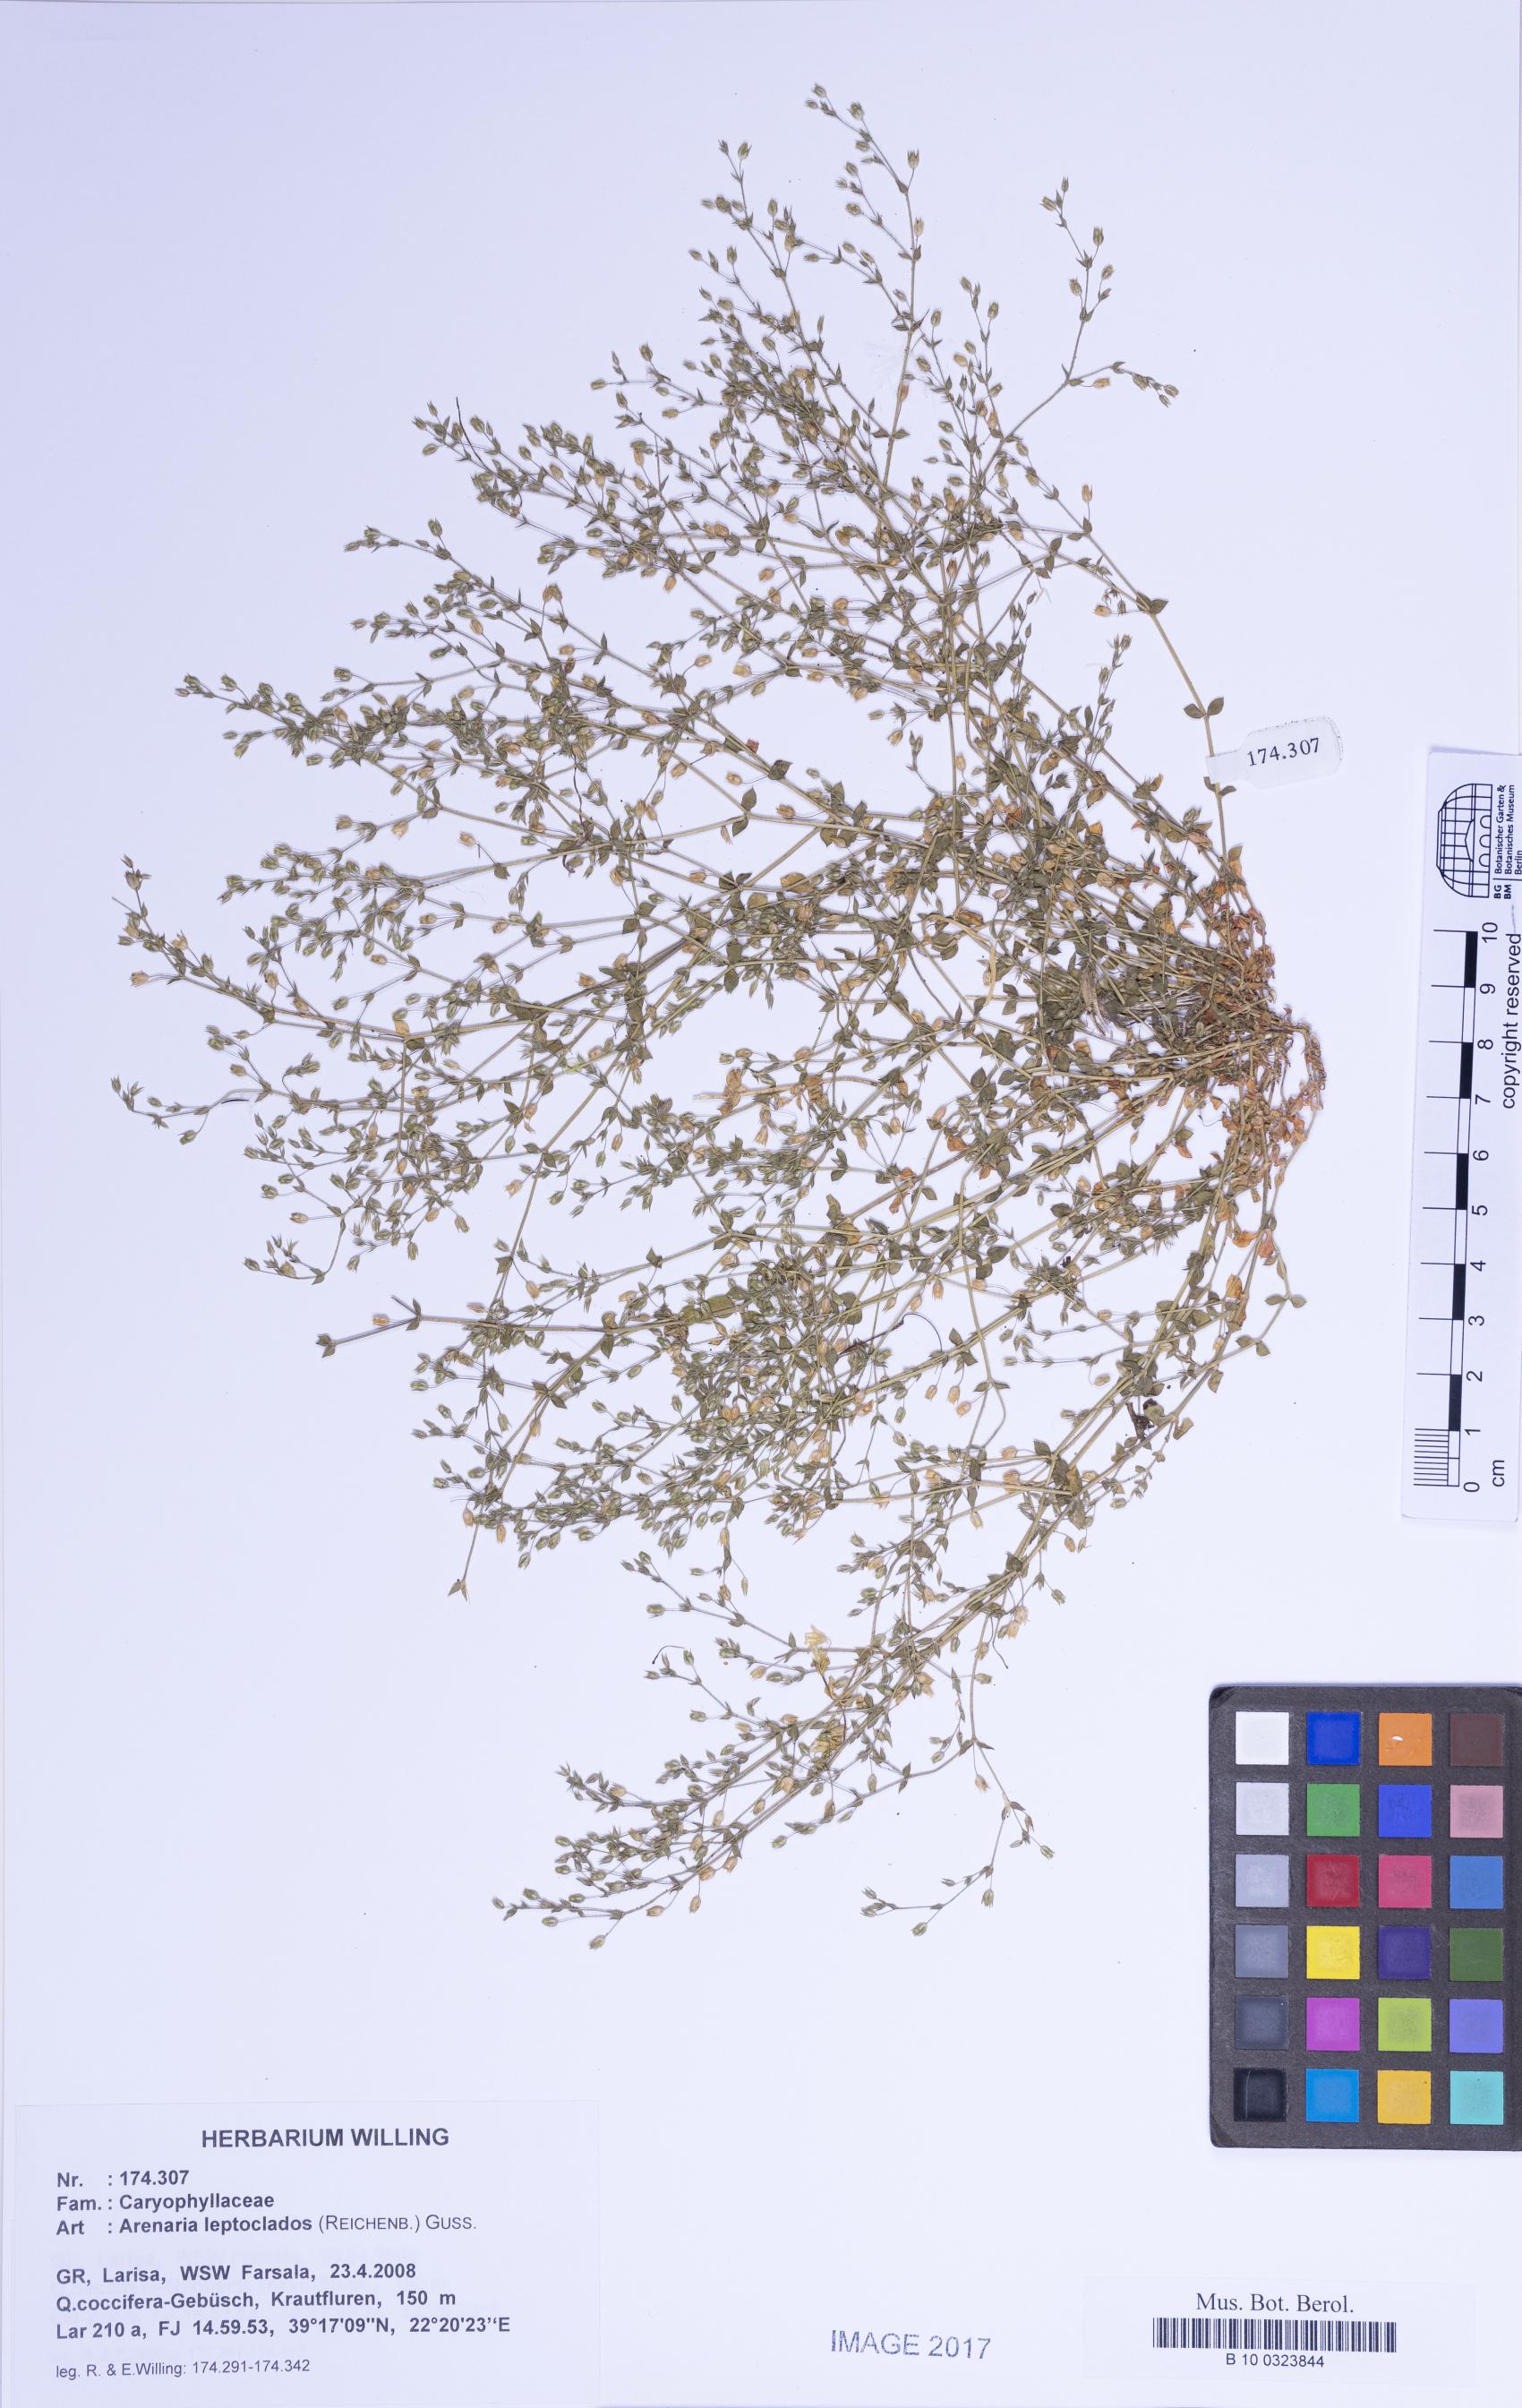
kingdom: Plantae
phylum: Tracheophyta
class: Magnoliopsida
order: Caryophyllales
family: Caryophyllaceae
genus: Arenaria
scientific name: Arenaria leptoclados
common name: Thyme-leaved sandwort
